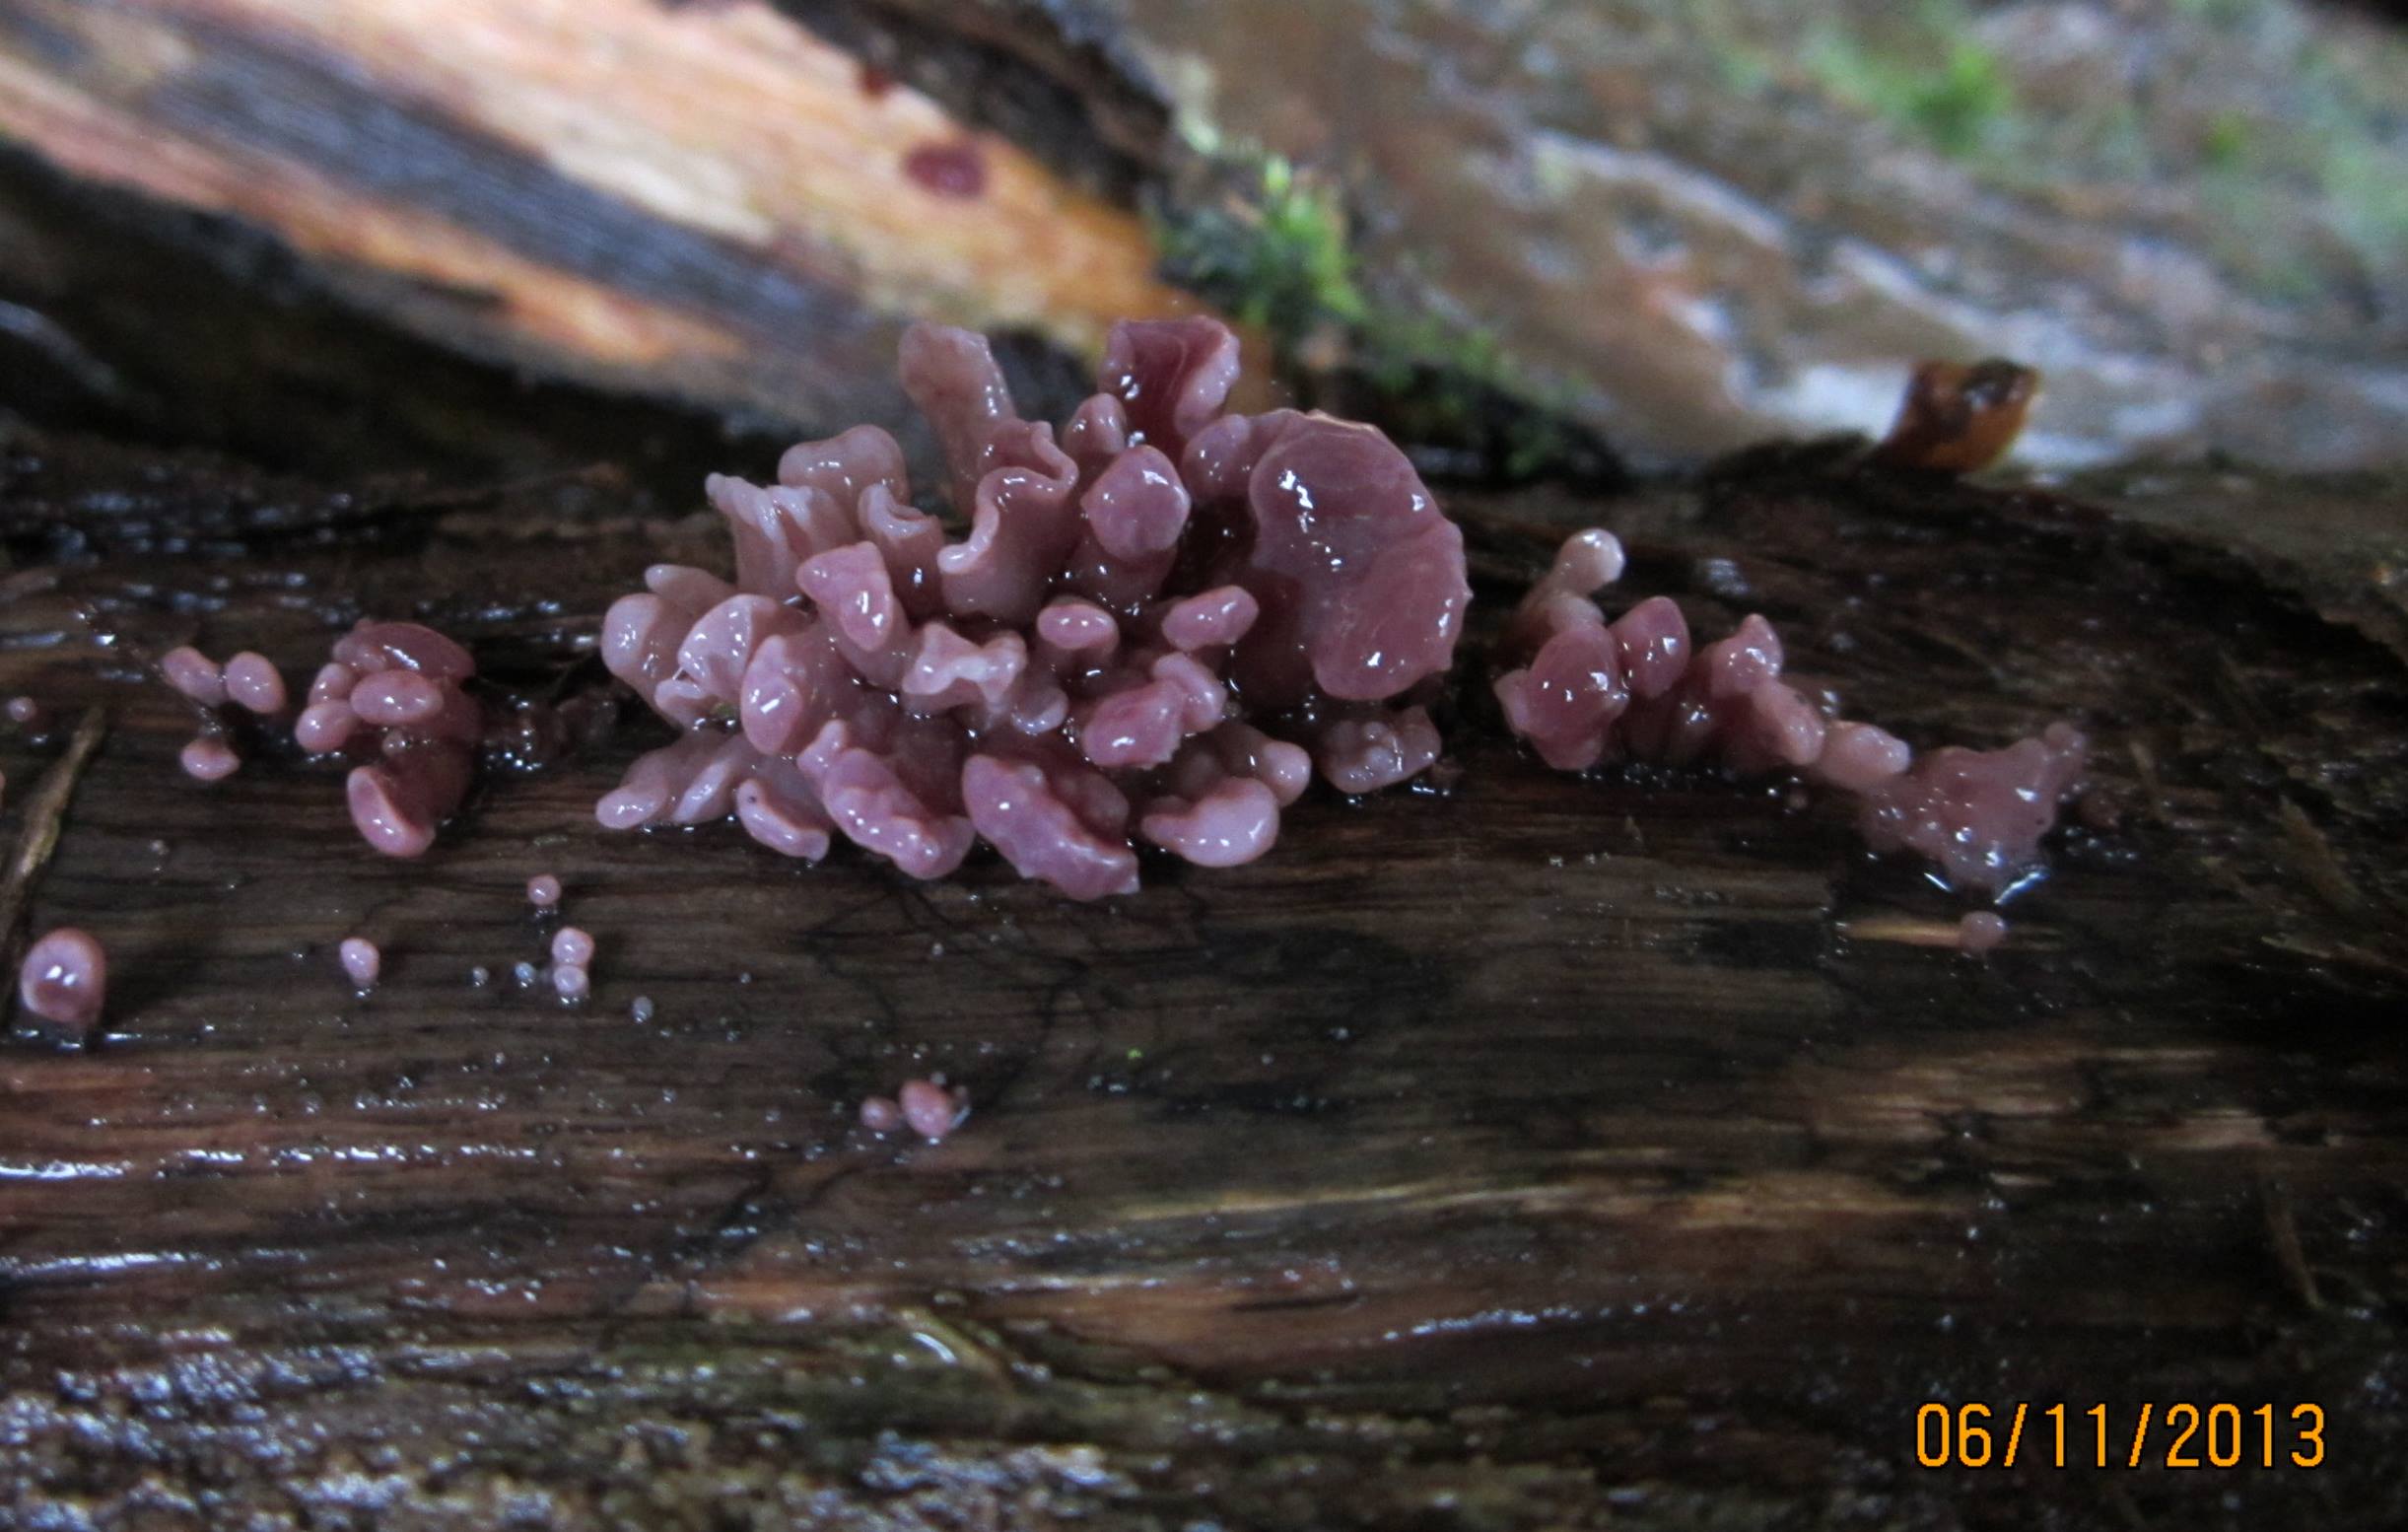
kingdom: Fungi
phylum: Ascomycota
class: Leotiomycetes
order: Helotiales
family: Gelatinodiscaceae
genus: Ascocoryne
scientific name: Ascocoryne sarcoides
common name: rødlilla sejskive
